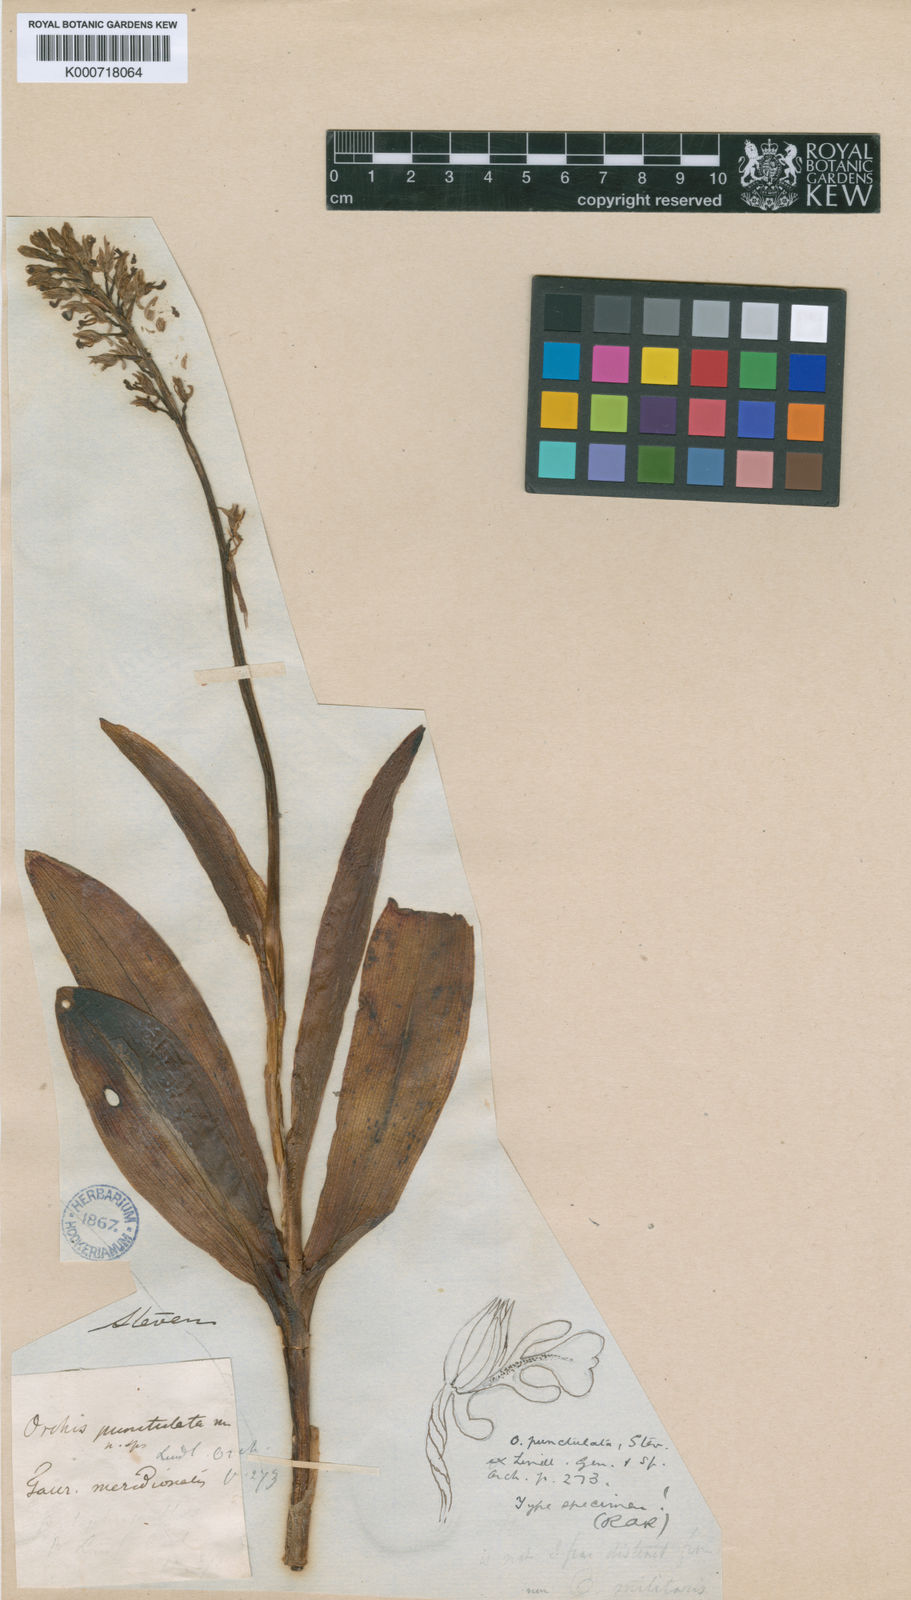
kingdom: Plantae
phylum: Tracheophyta
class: Liliopsida
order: Asparagales
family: Orchidaceae
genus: Orchis
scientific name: Orchis punctulata
